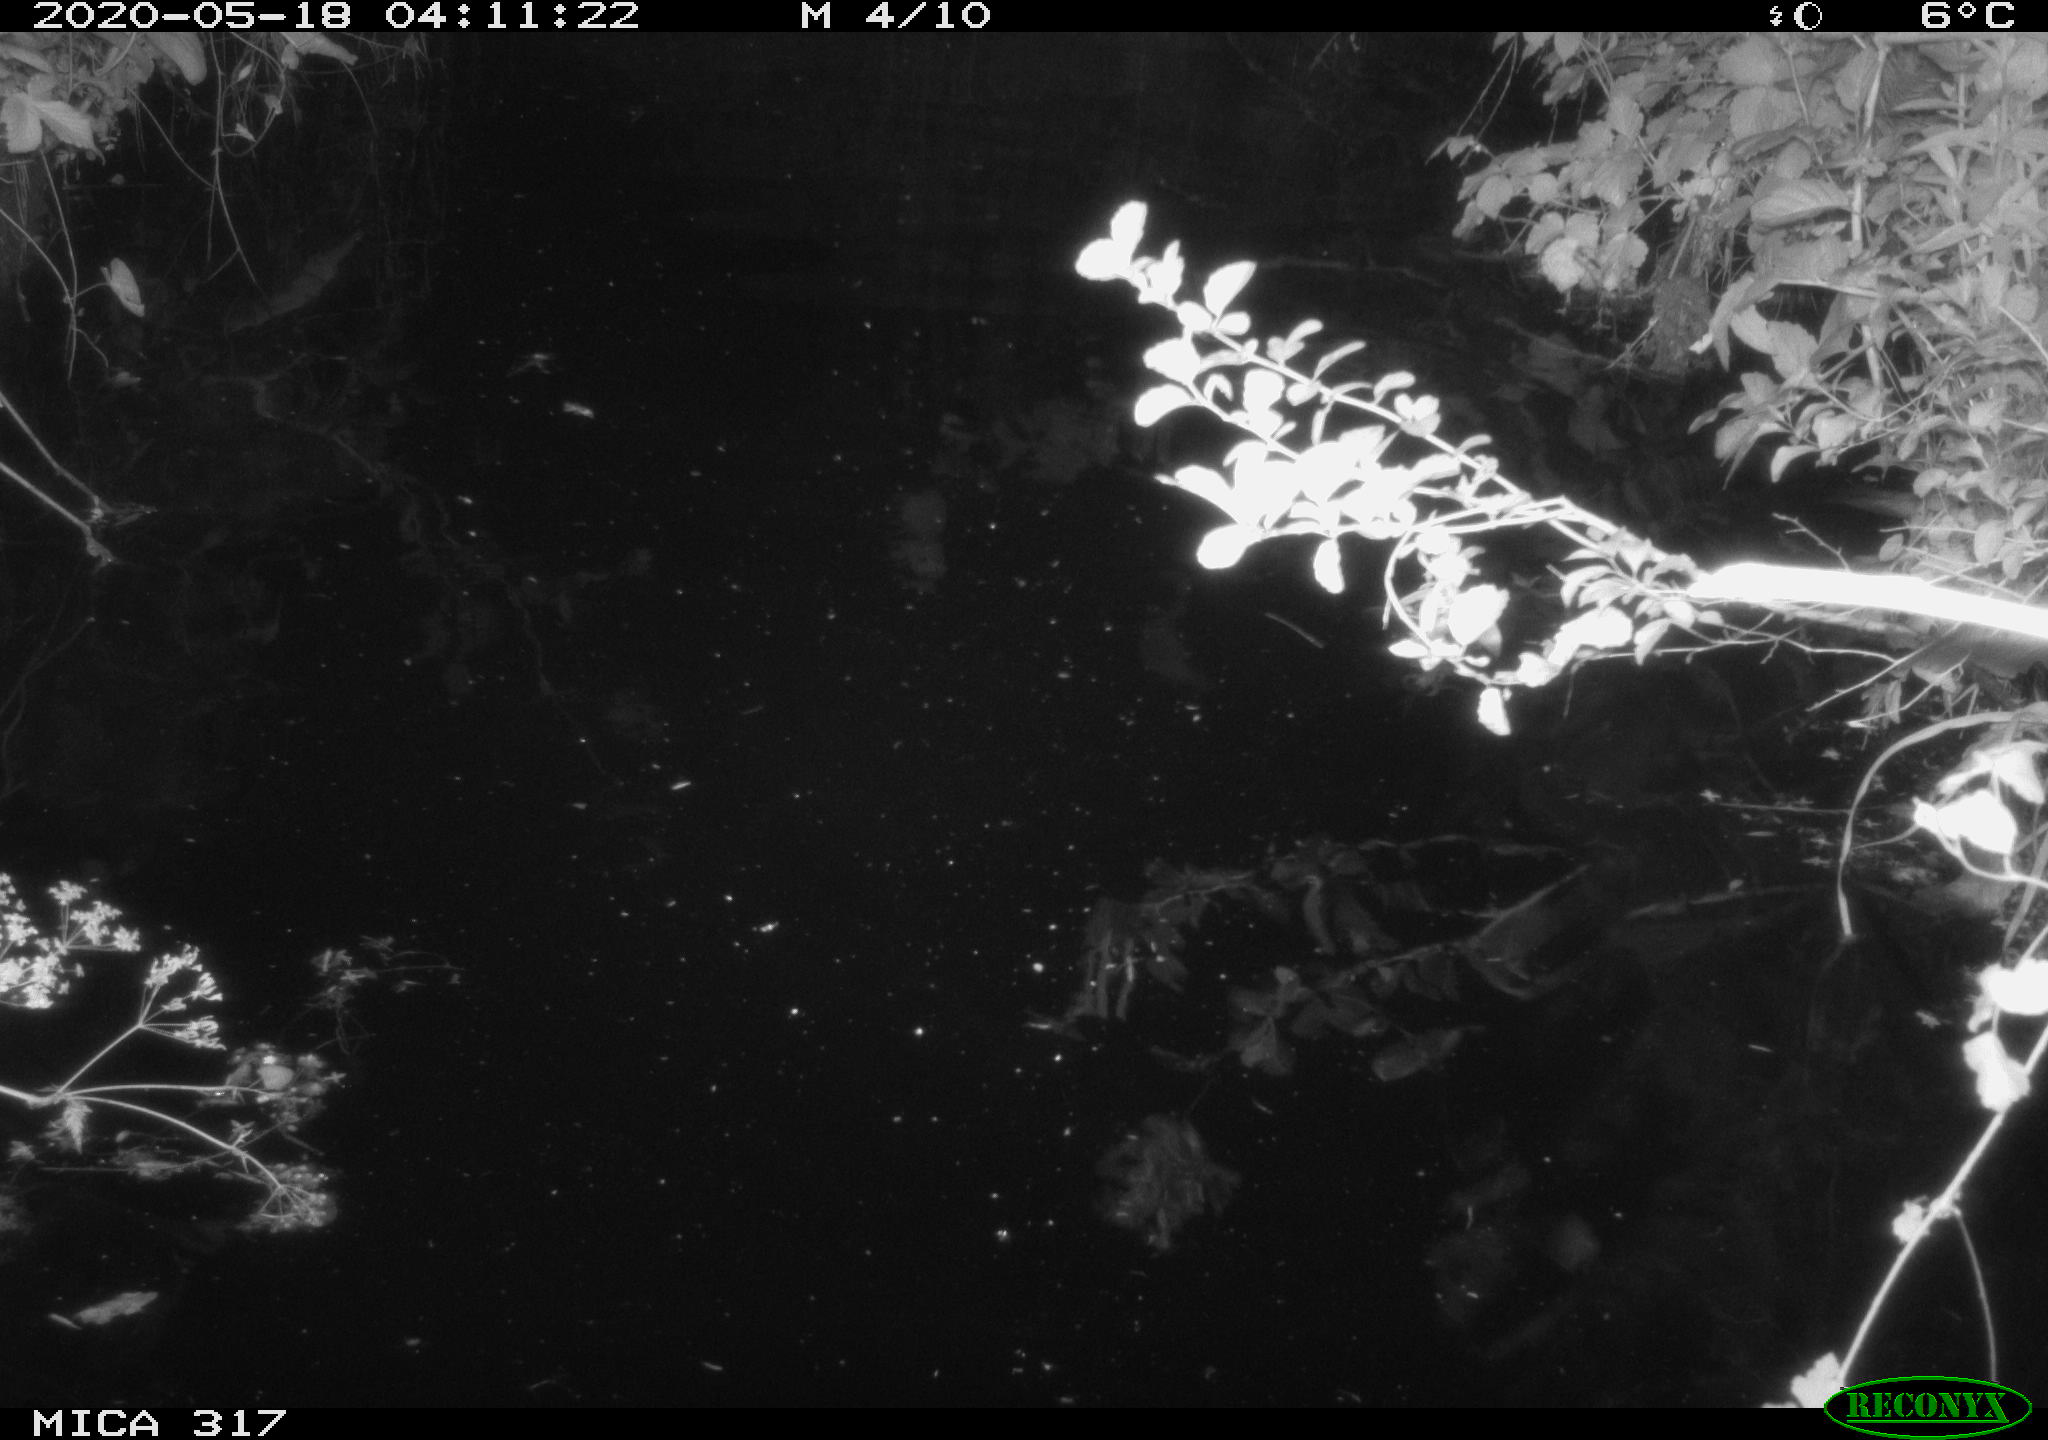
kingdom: Animalia
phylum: Chordata
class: Aves
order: Anseriformes
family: Anatidae
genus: Anas
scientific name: Anas platyrhynchos
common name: Mallard
